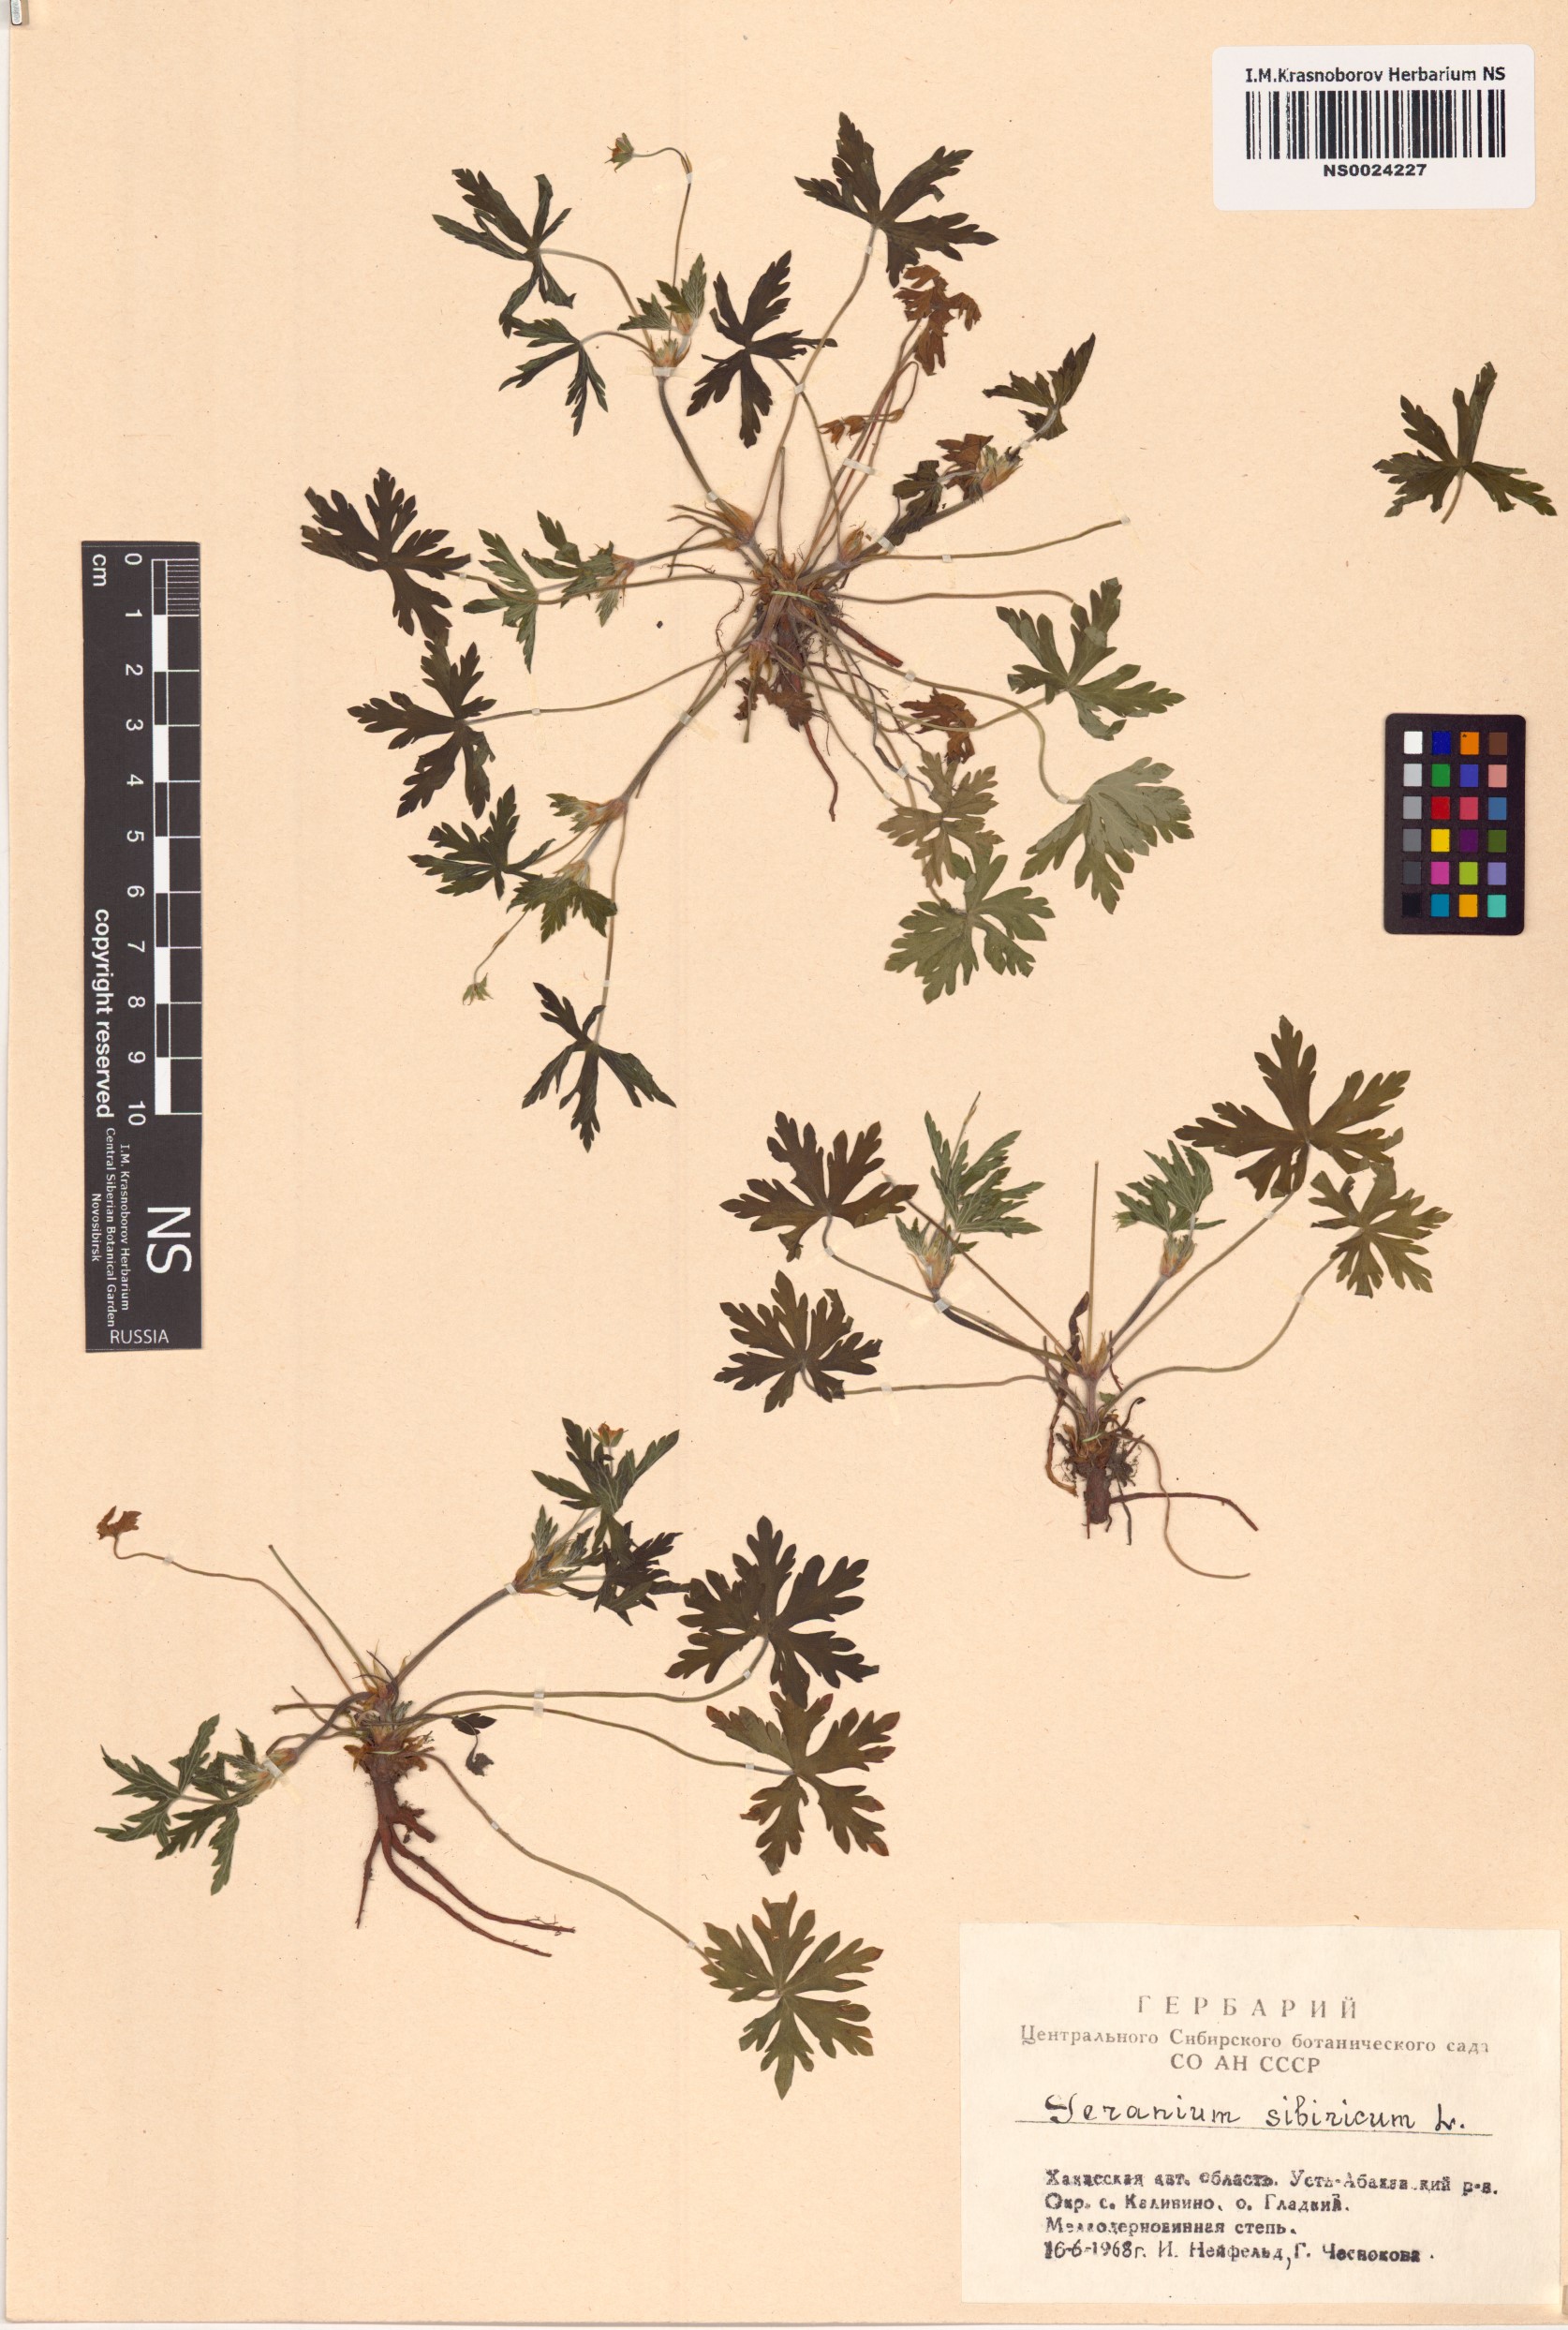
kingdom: Plantae
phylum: Tracheophyta
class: Magnoliopsida
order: Geraniales
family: Geraniaceae
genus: Geranium
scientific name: Geranium sibiricum
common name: Siberian crane's-bill
